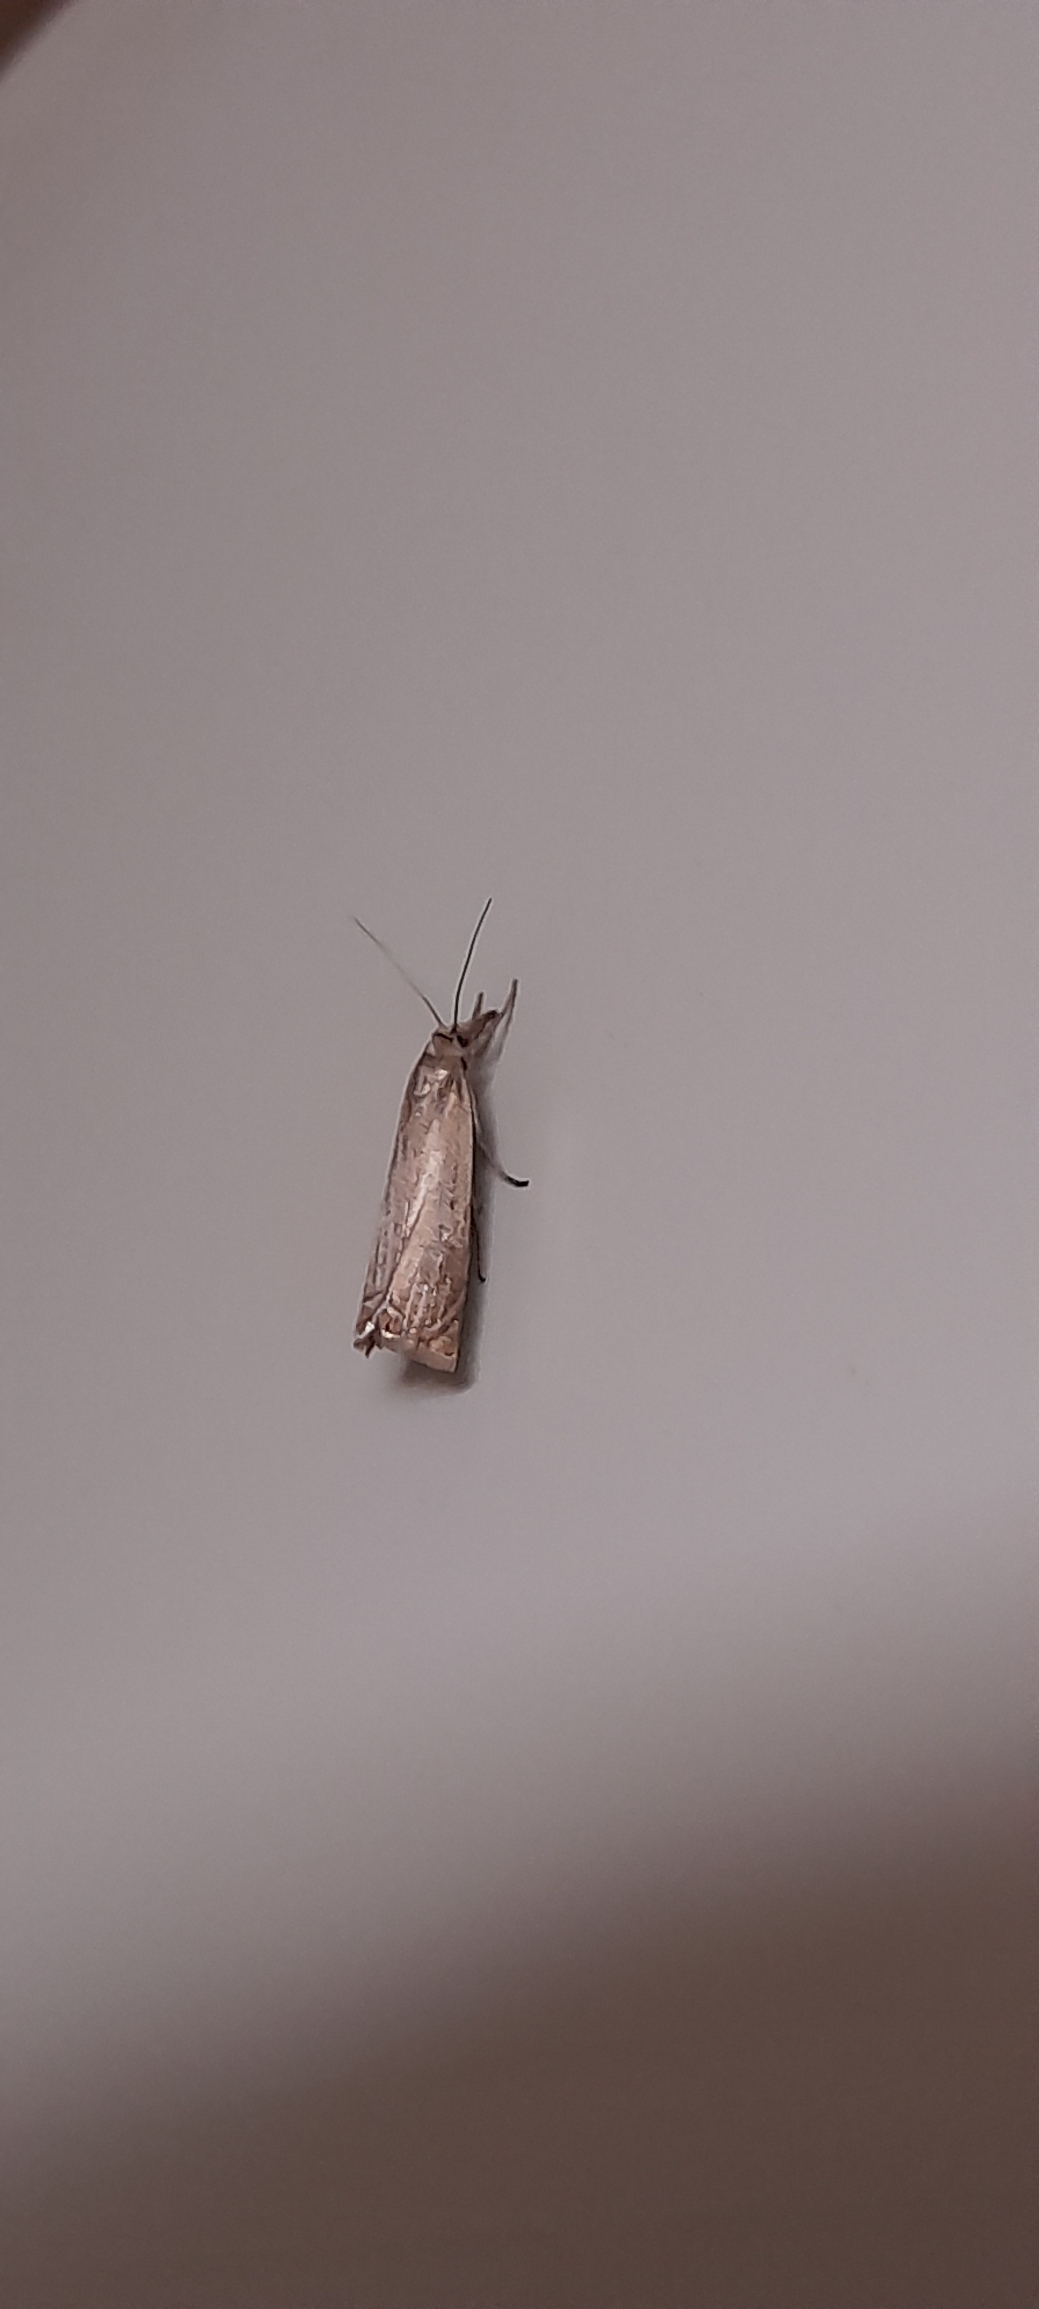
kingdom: Animalia
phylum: Arthropoda
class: Insecta
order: Lepidoptera
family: Crambidae
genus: Chrysoteuchia
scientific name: Chrysoteuchia culmella
